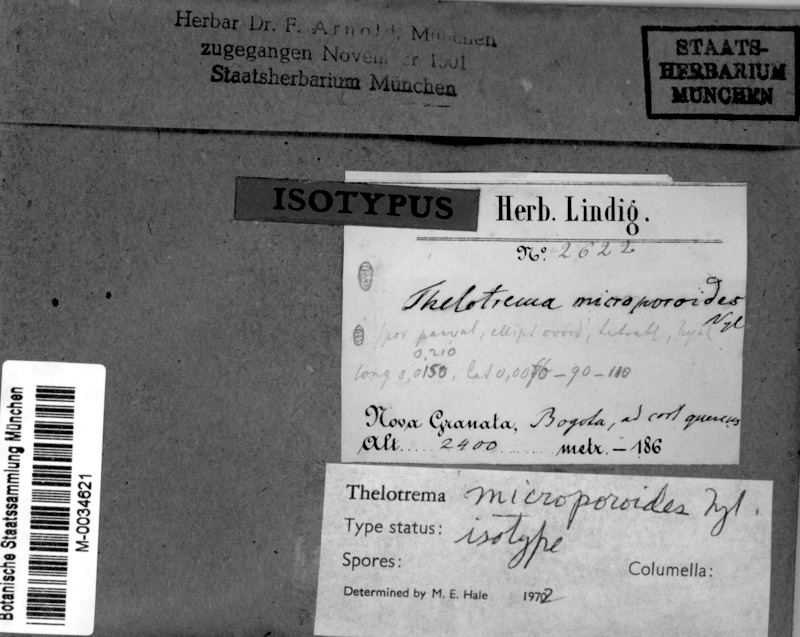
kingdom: Fungi
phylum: Ascomycota
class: Lecanoromycetes
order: Ostropales
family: Graphidaceae
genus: Thelotrema
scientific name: Thelotrema
